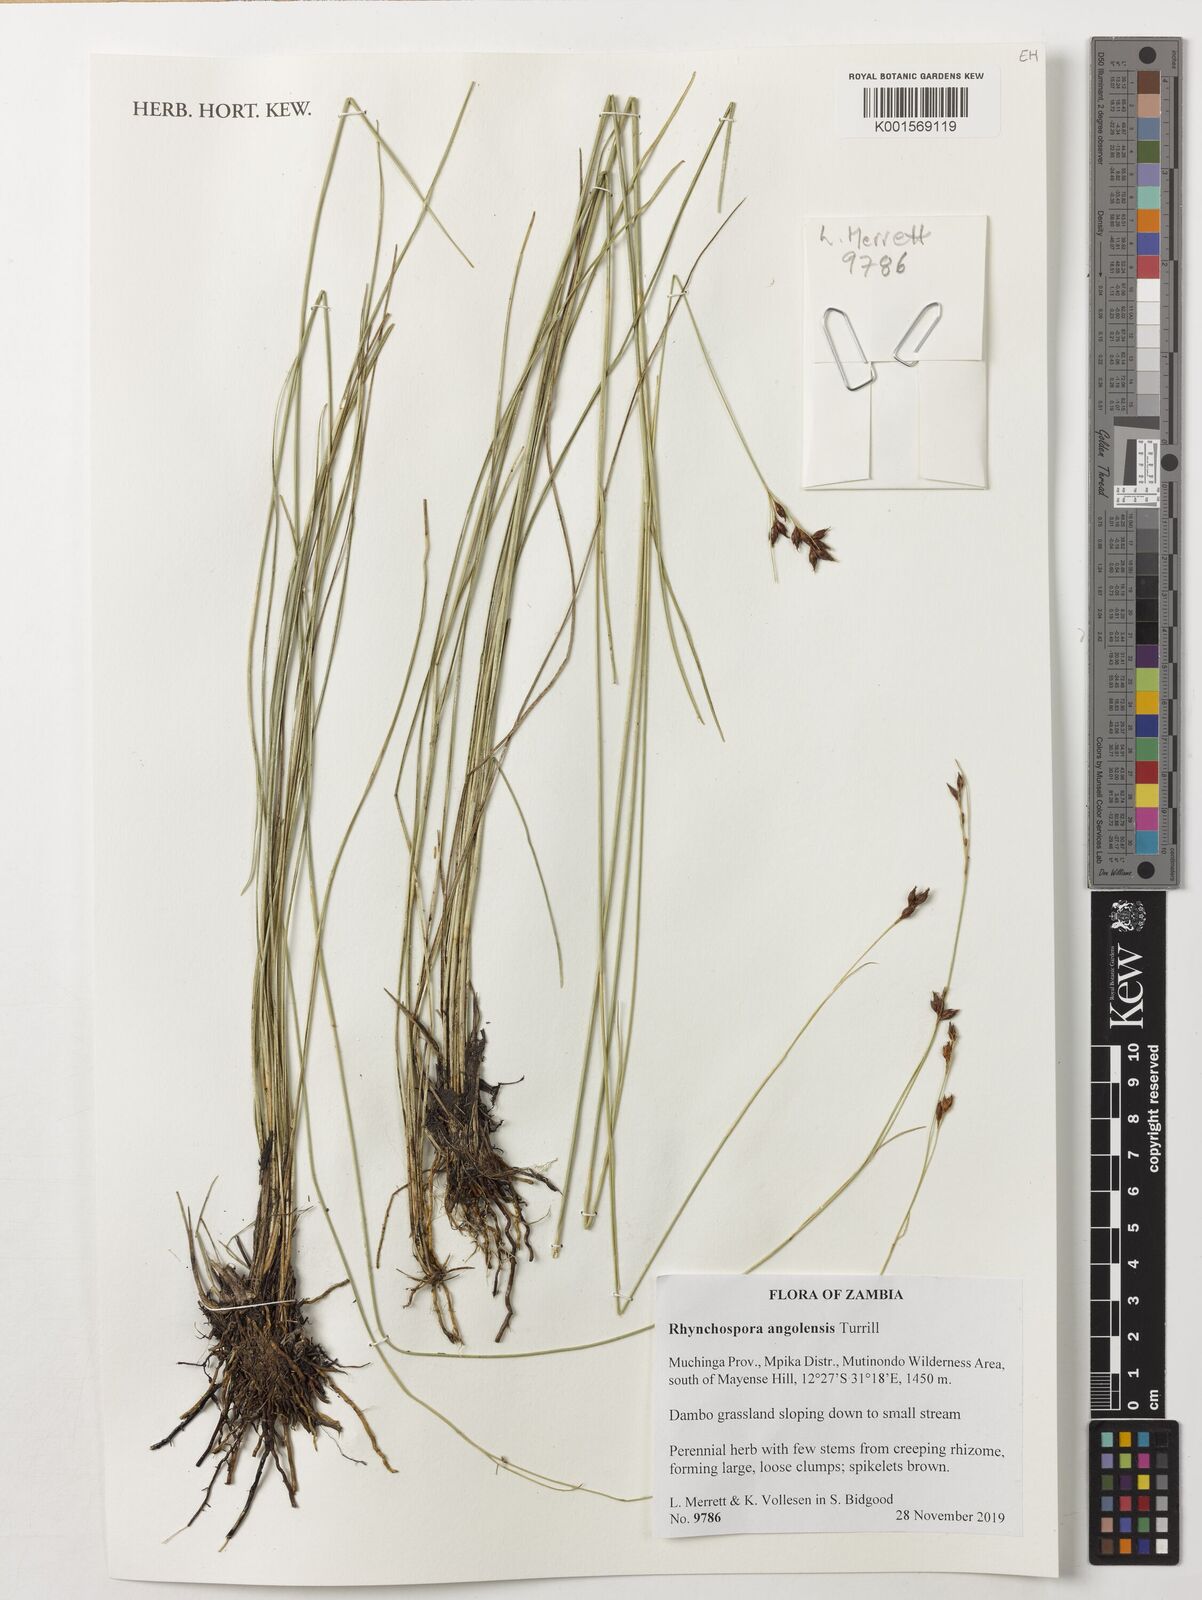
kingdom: Plantae
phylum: Tracheophyta
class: Liliopsida
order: Poales
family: Cyperaceae
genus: Rhynchospora
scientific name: Rhynchospora angolensis
